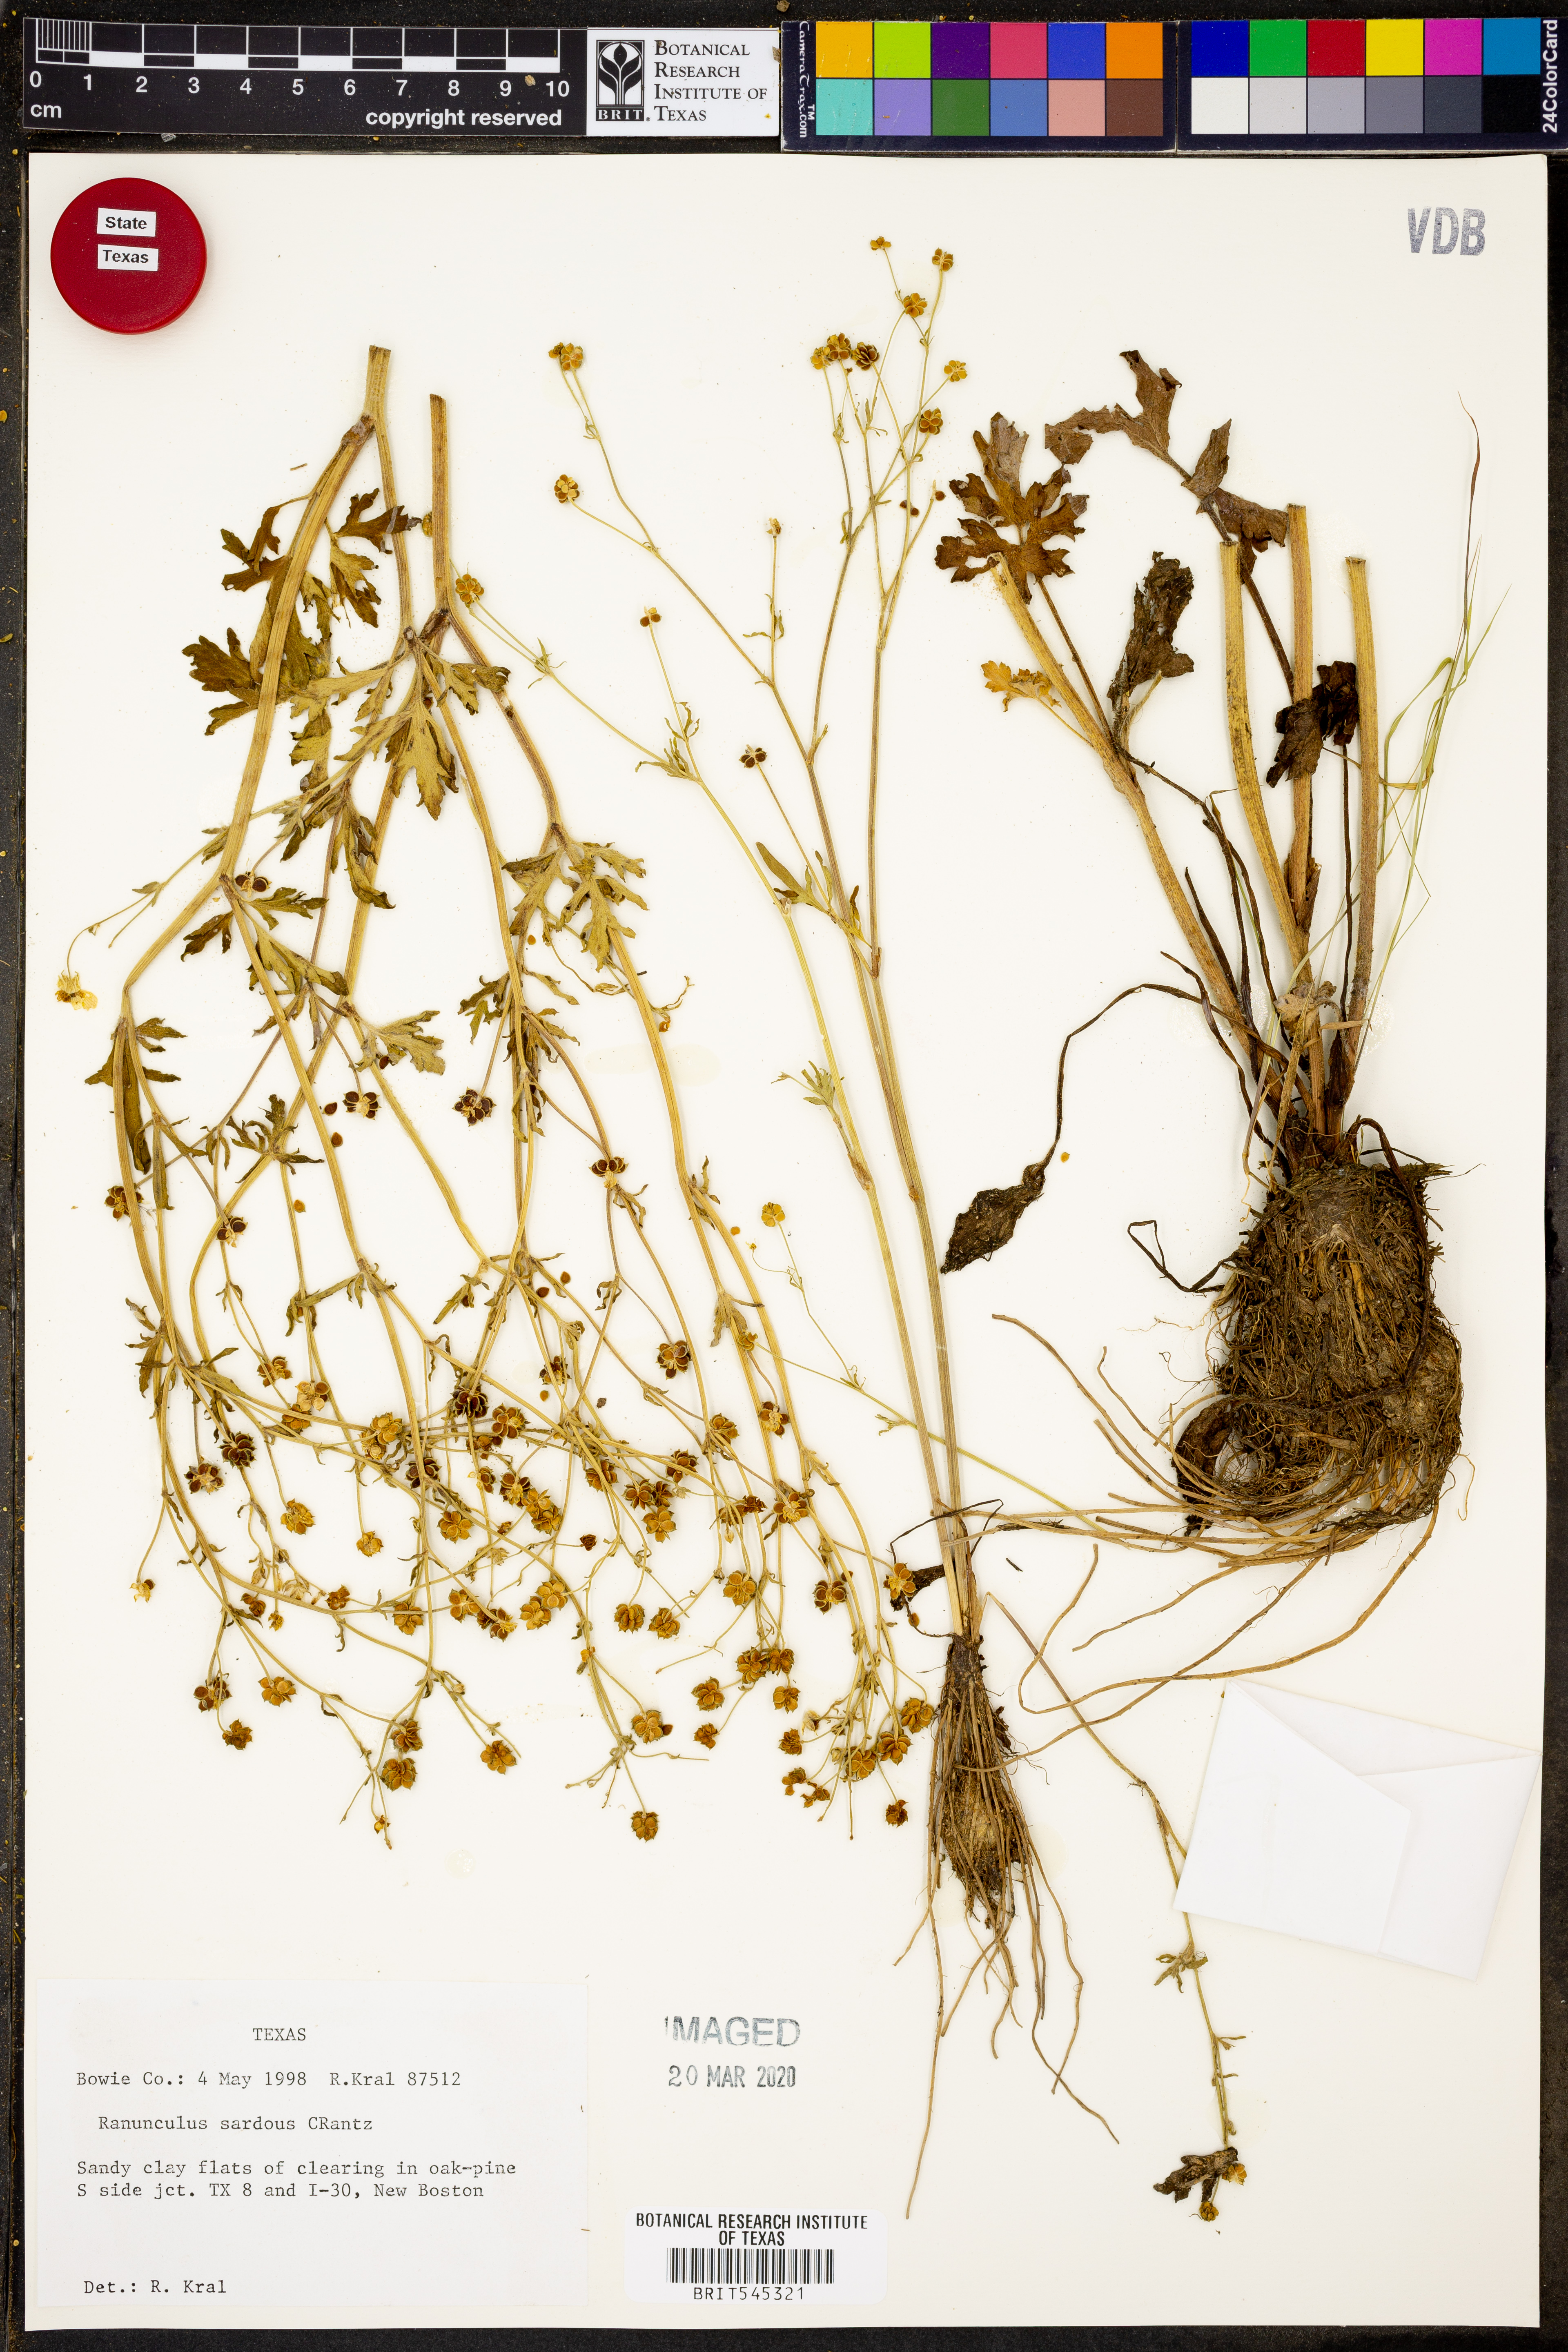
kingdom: Plantae
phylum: Tracheophyta
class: Magnoliopsida
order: Ranunculales
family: Ranunculaceae
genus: Ranunculus
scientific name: Ranunculus sardous
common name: Hairy buttercup
